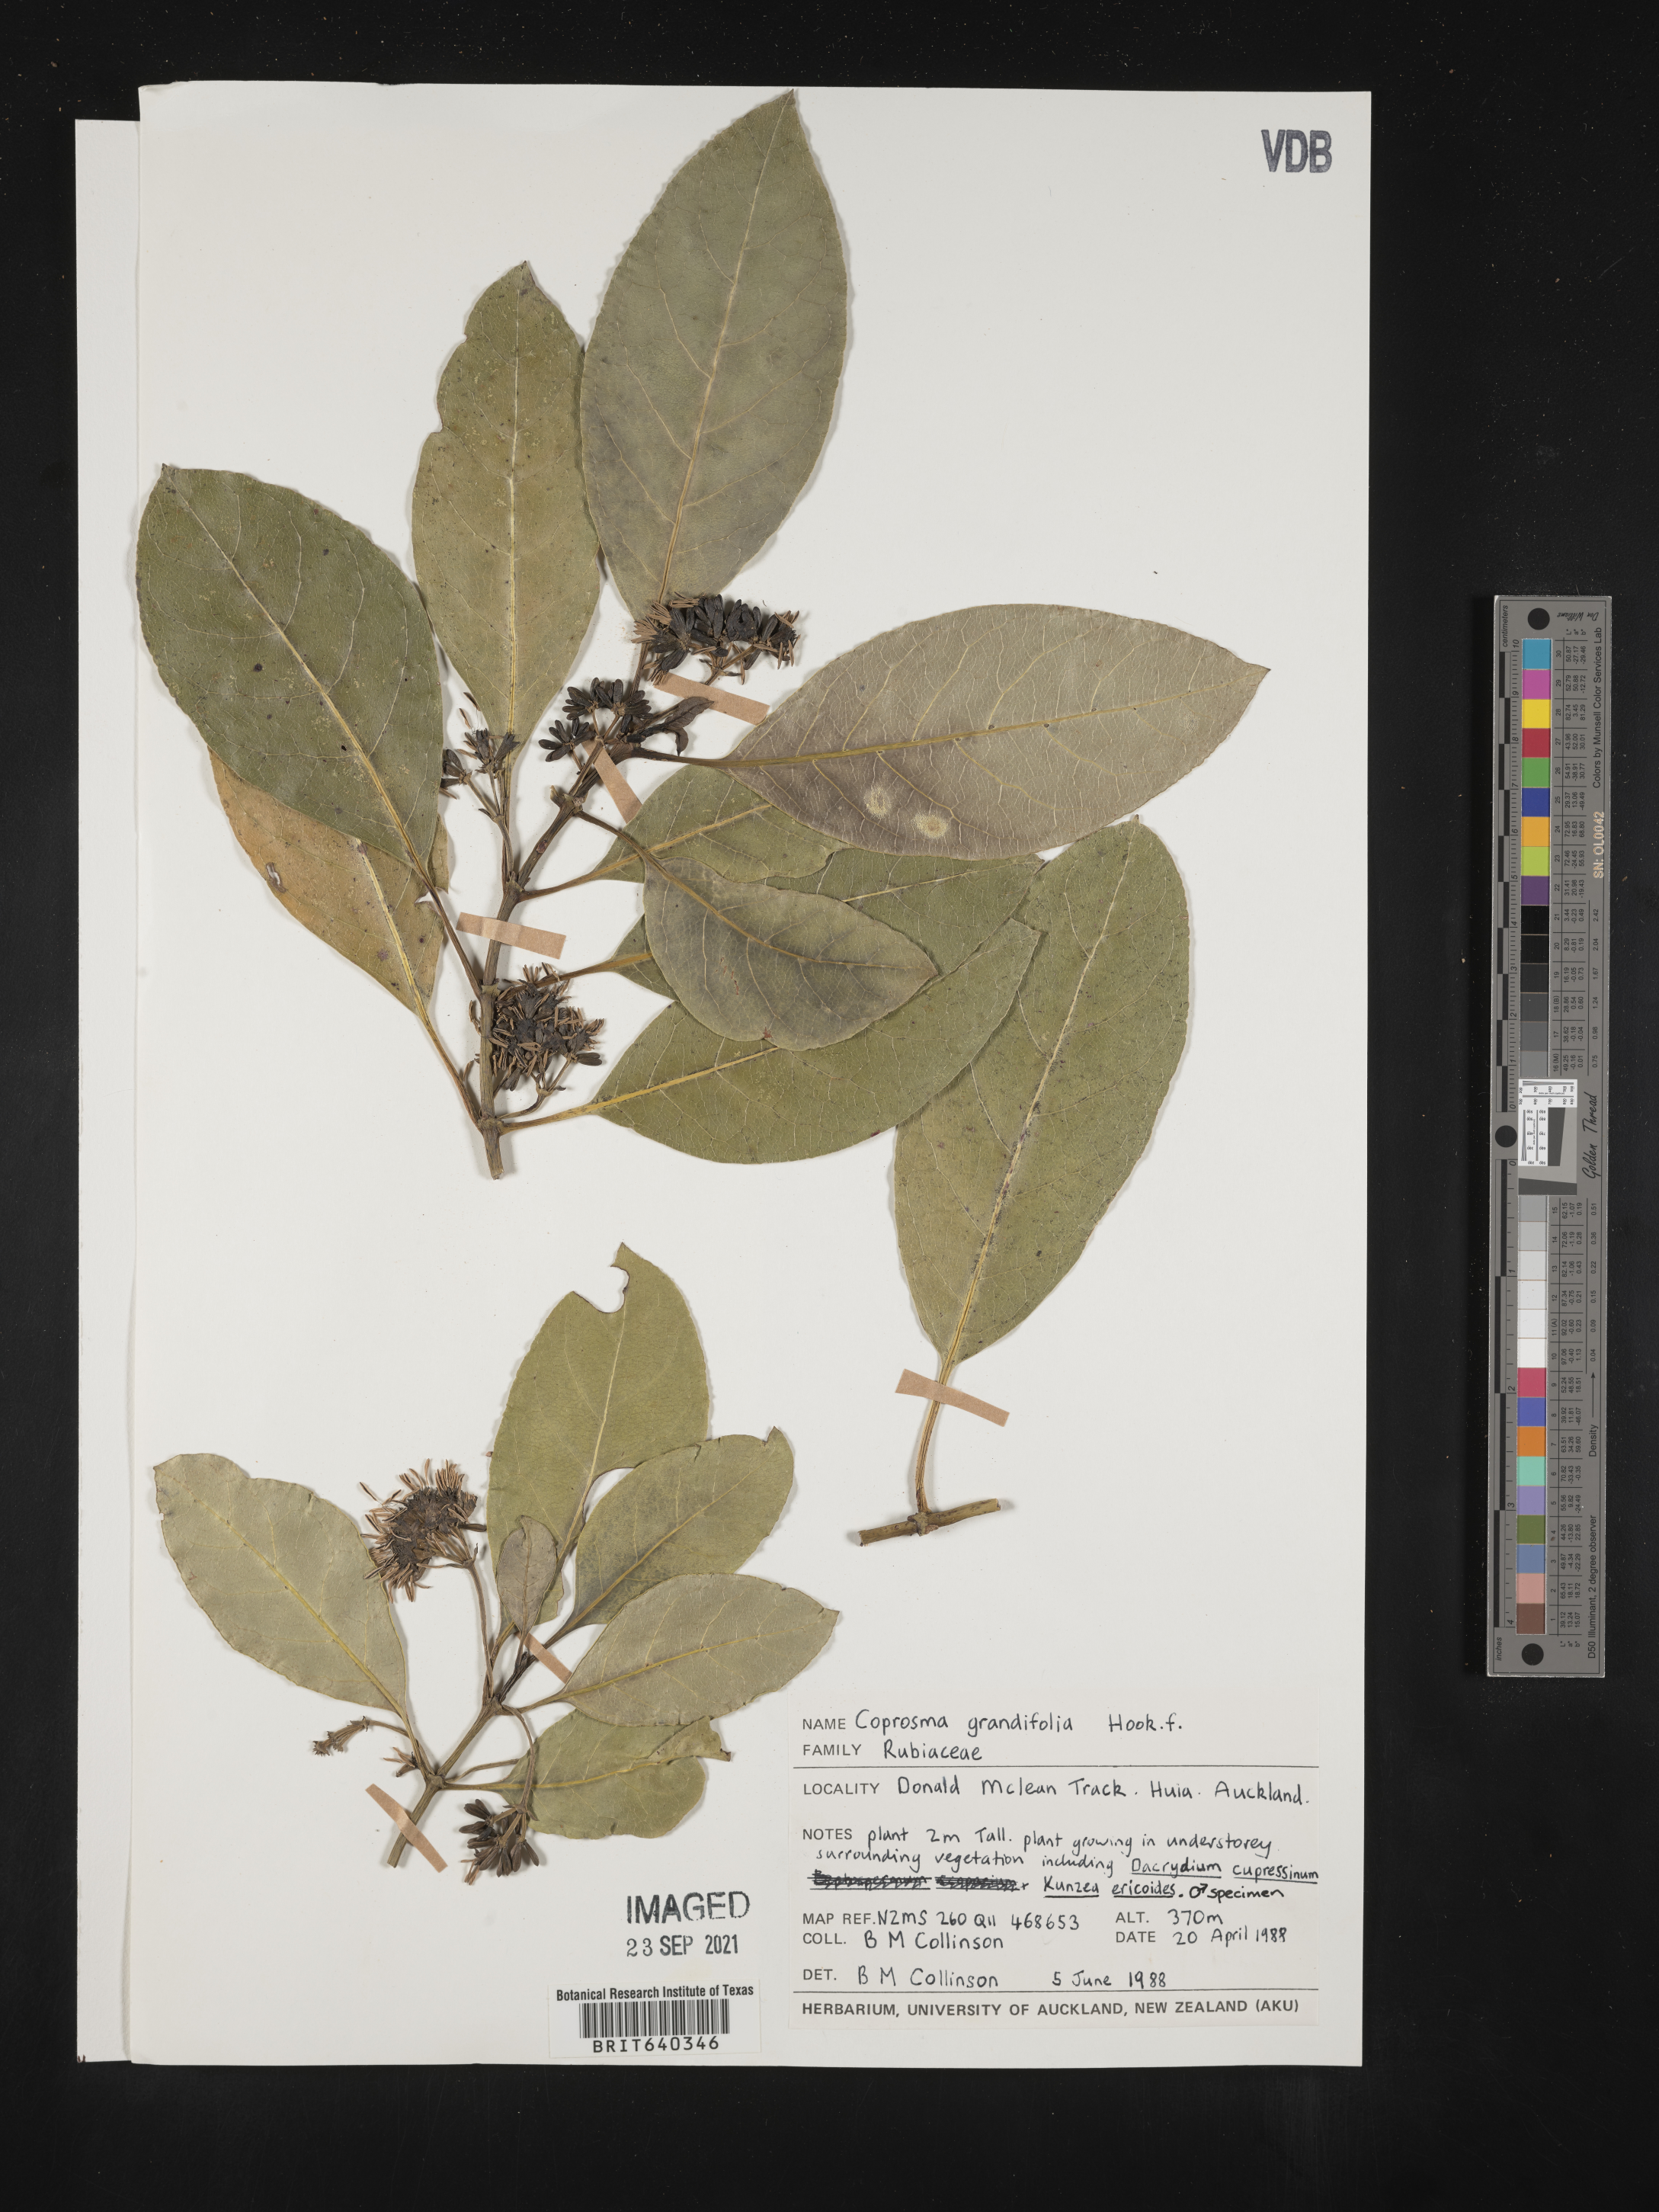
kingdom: Plantae
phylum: Tracheophyta
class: Magnoliopsida
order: Gentianales
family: Rubiaceae
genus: Coprosma
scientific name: Coprosma
